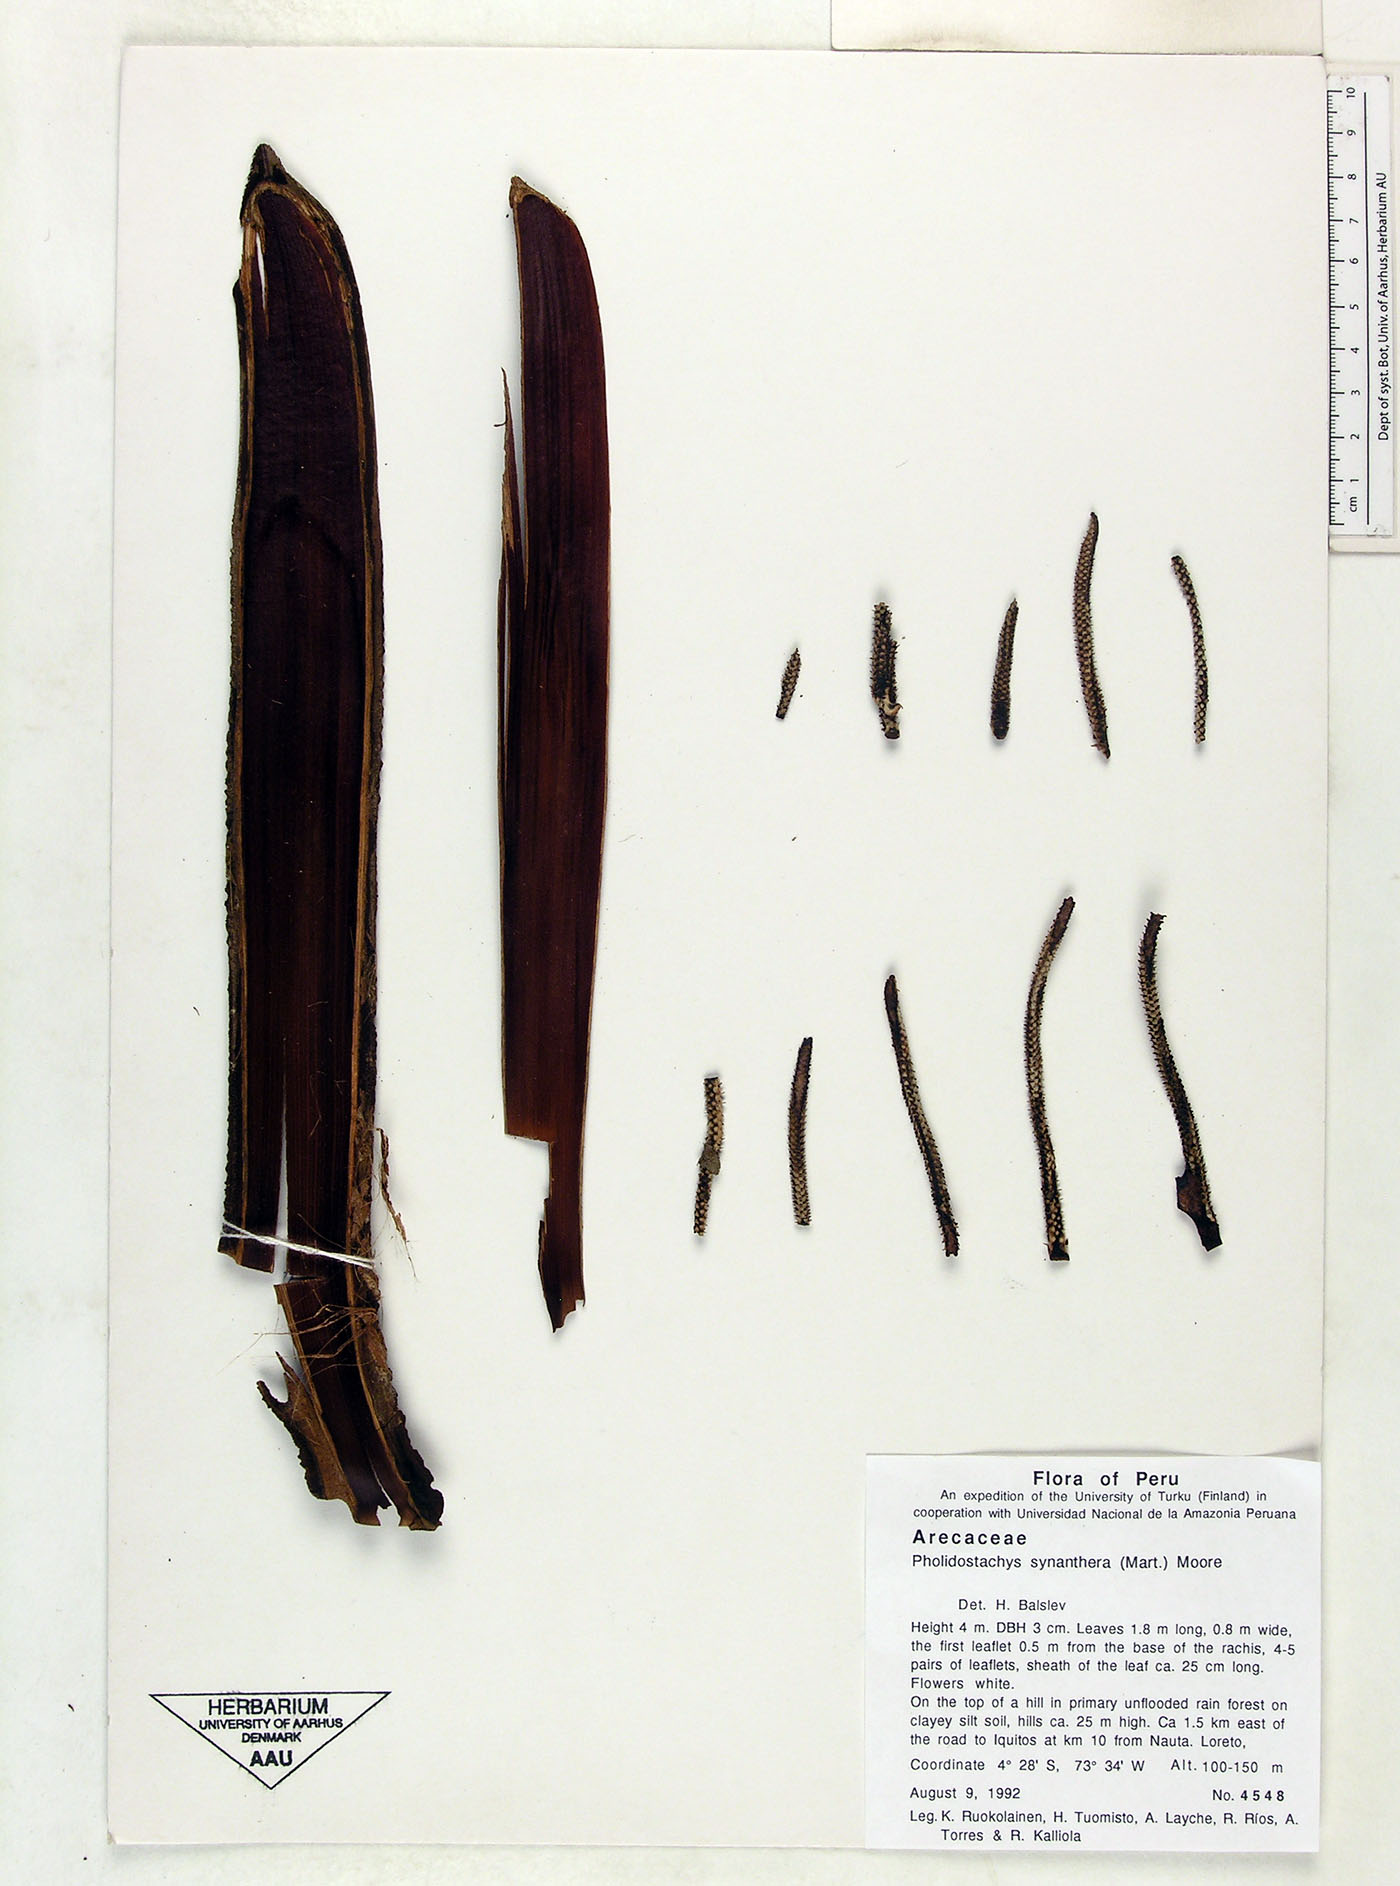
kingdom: Plantae
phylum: Tracheophyta
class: Liliopsida
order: Arecales
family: Arecaceae
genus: Pholidostachys
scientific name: Pholidostachys synanthera
